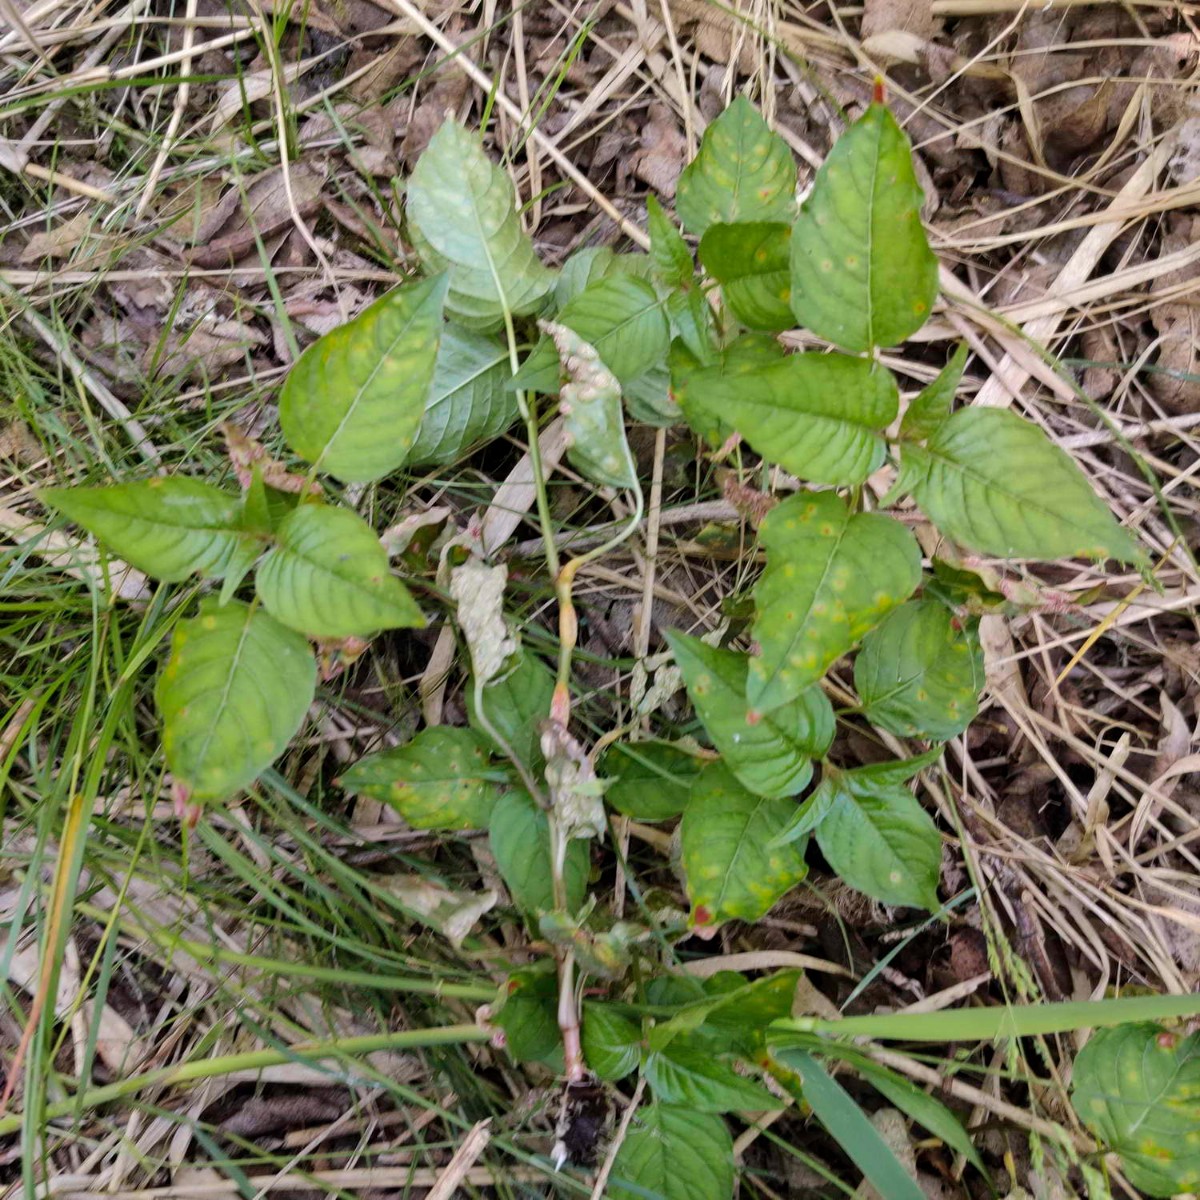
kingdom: Fungi
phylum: Basidiomycota
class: Pucciniomycetes
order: Pucciniales
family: Pucciniaceae
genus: Puccinia
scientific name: Puccinia circaeae-caricis
